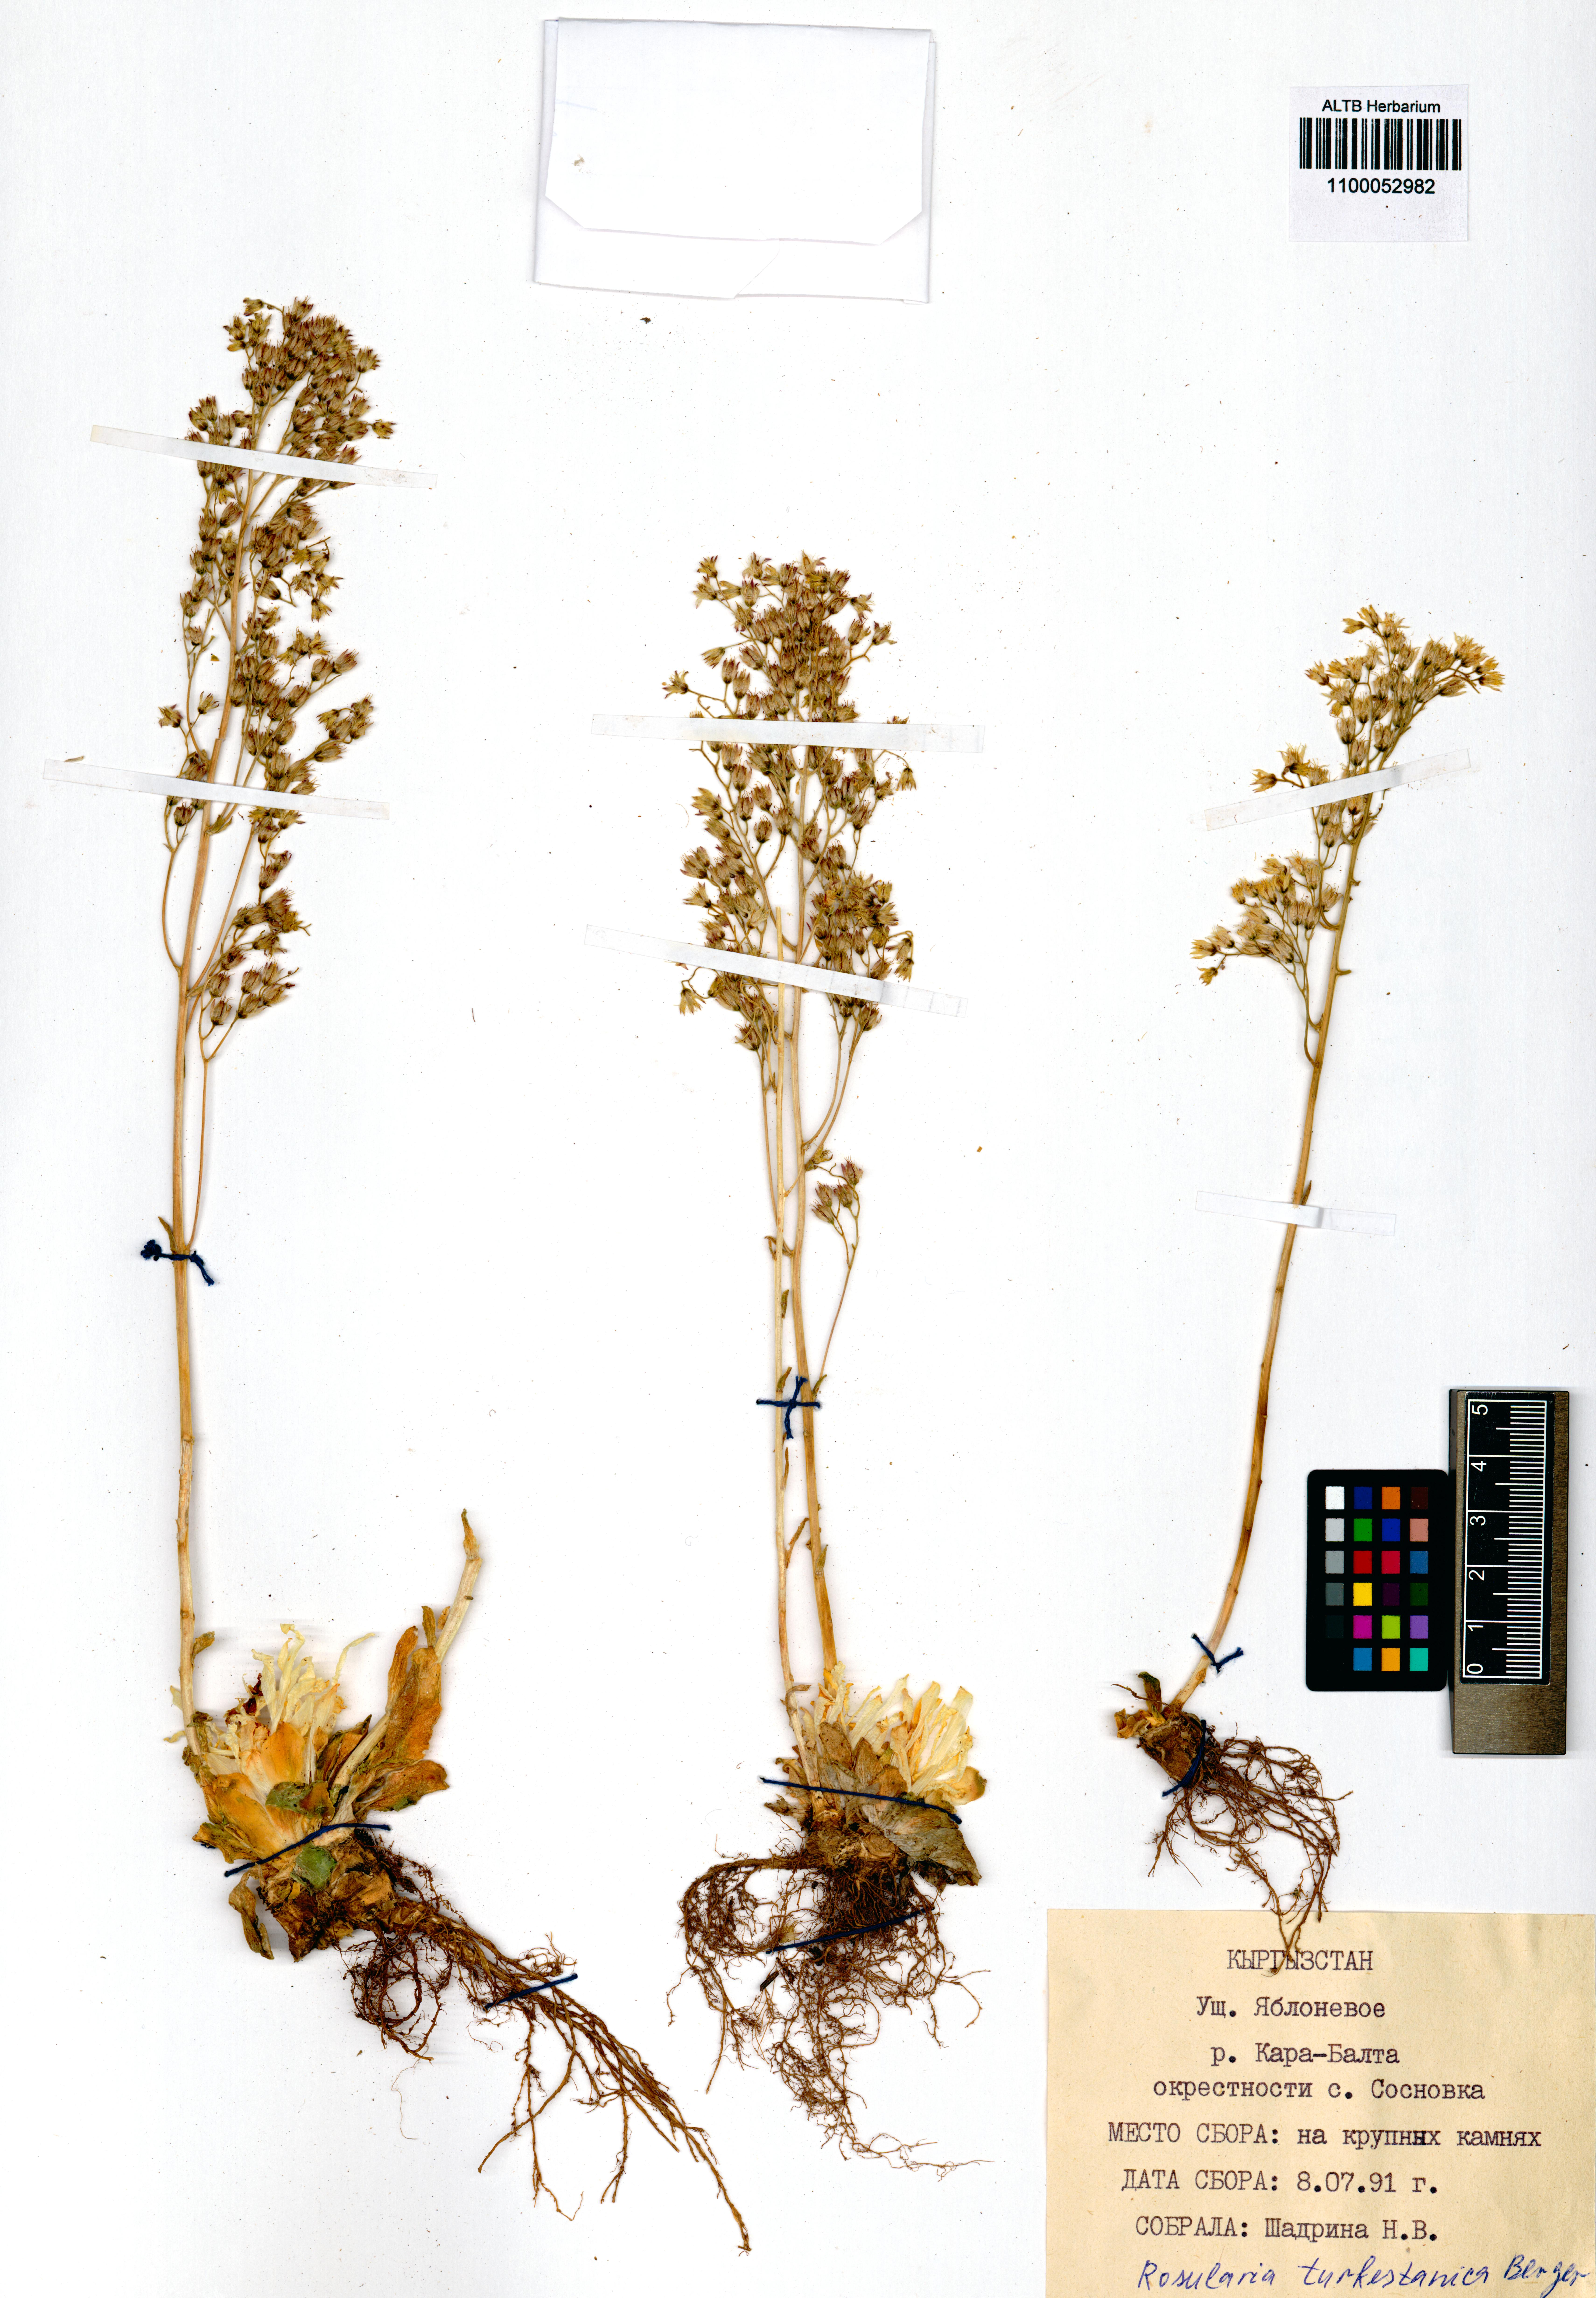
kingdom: Plantae
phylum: Tracheophyta
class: Magnoliopsida
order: Saxifragales
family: Crassulaceae
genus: Rosularia
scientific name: Rosularia platyphylla
